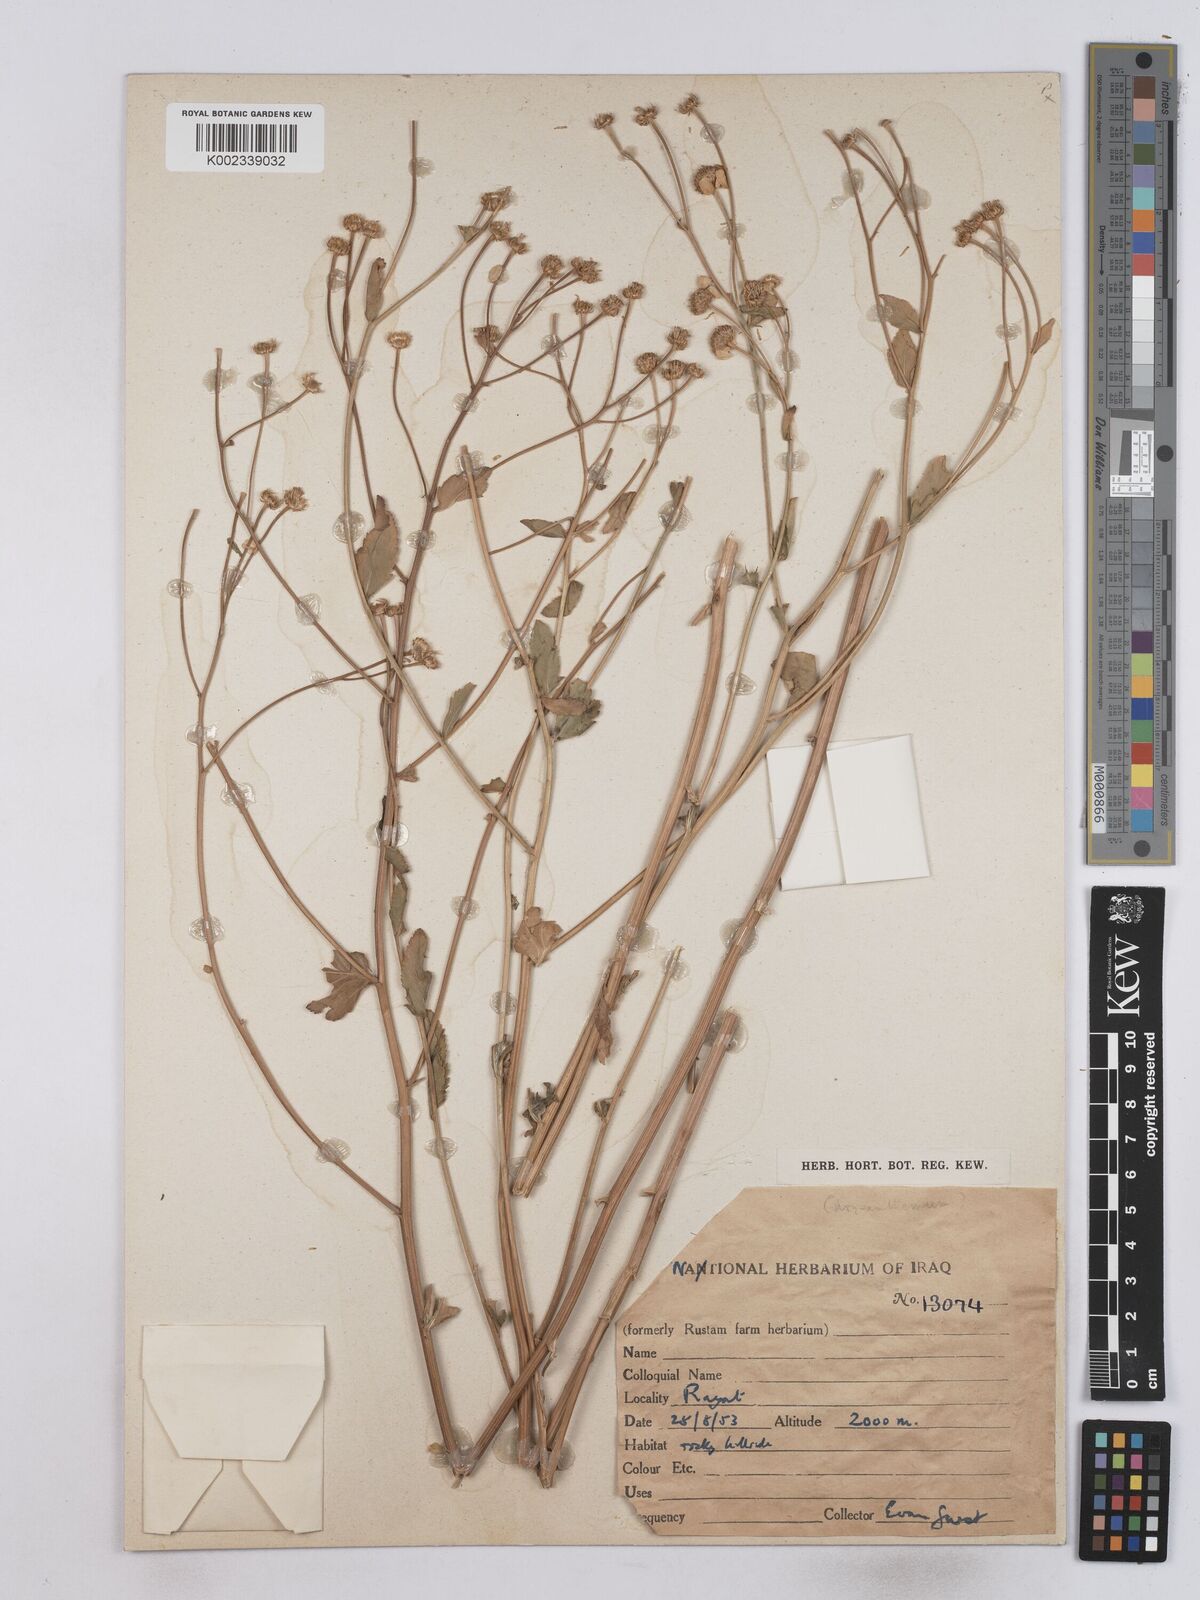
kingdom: Plantae
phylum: Tracheophyta
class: Magnoliopsida
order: Asterales
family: Asteraceae
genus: Tanacetum
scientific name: Tanacetum balsamitoides
